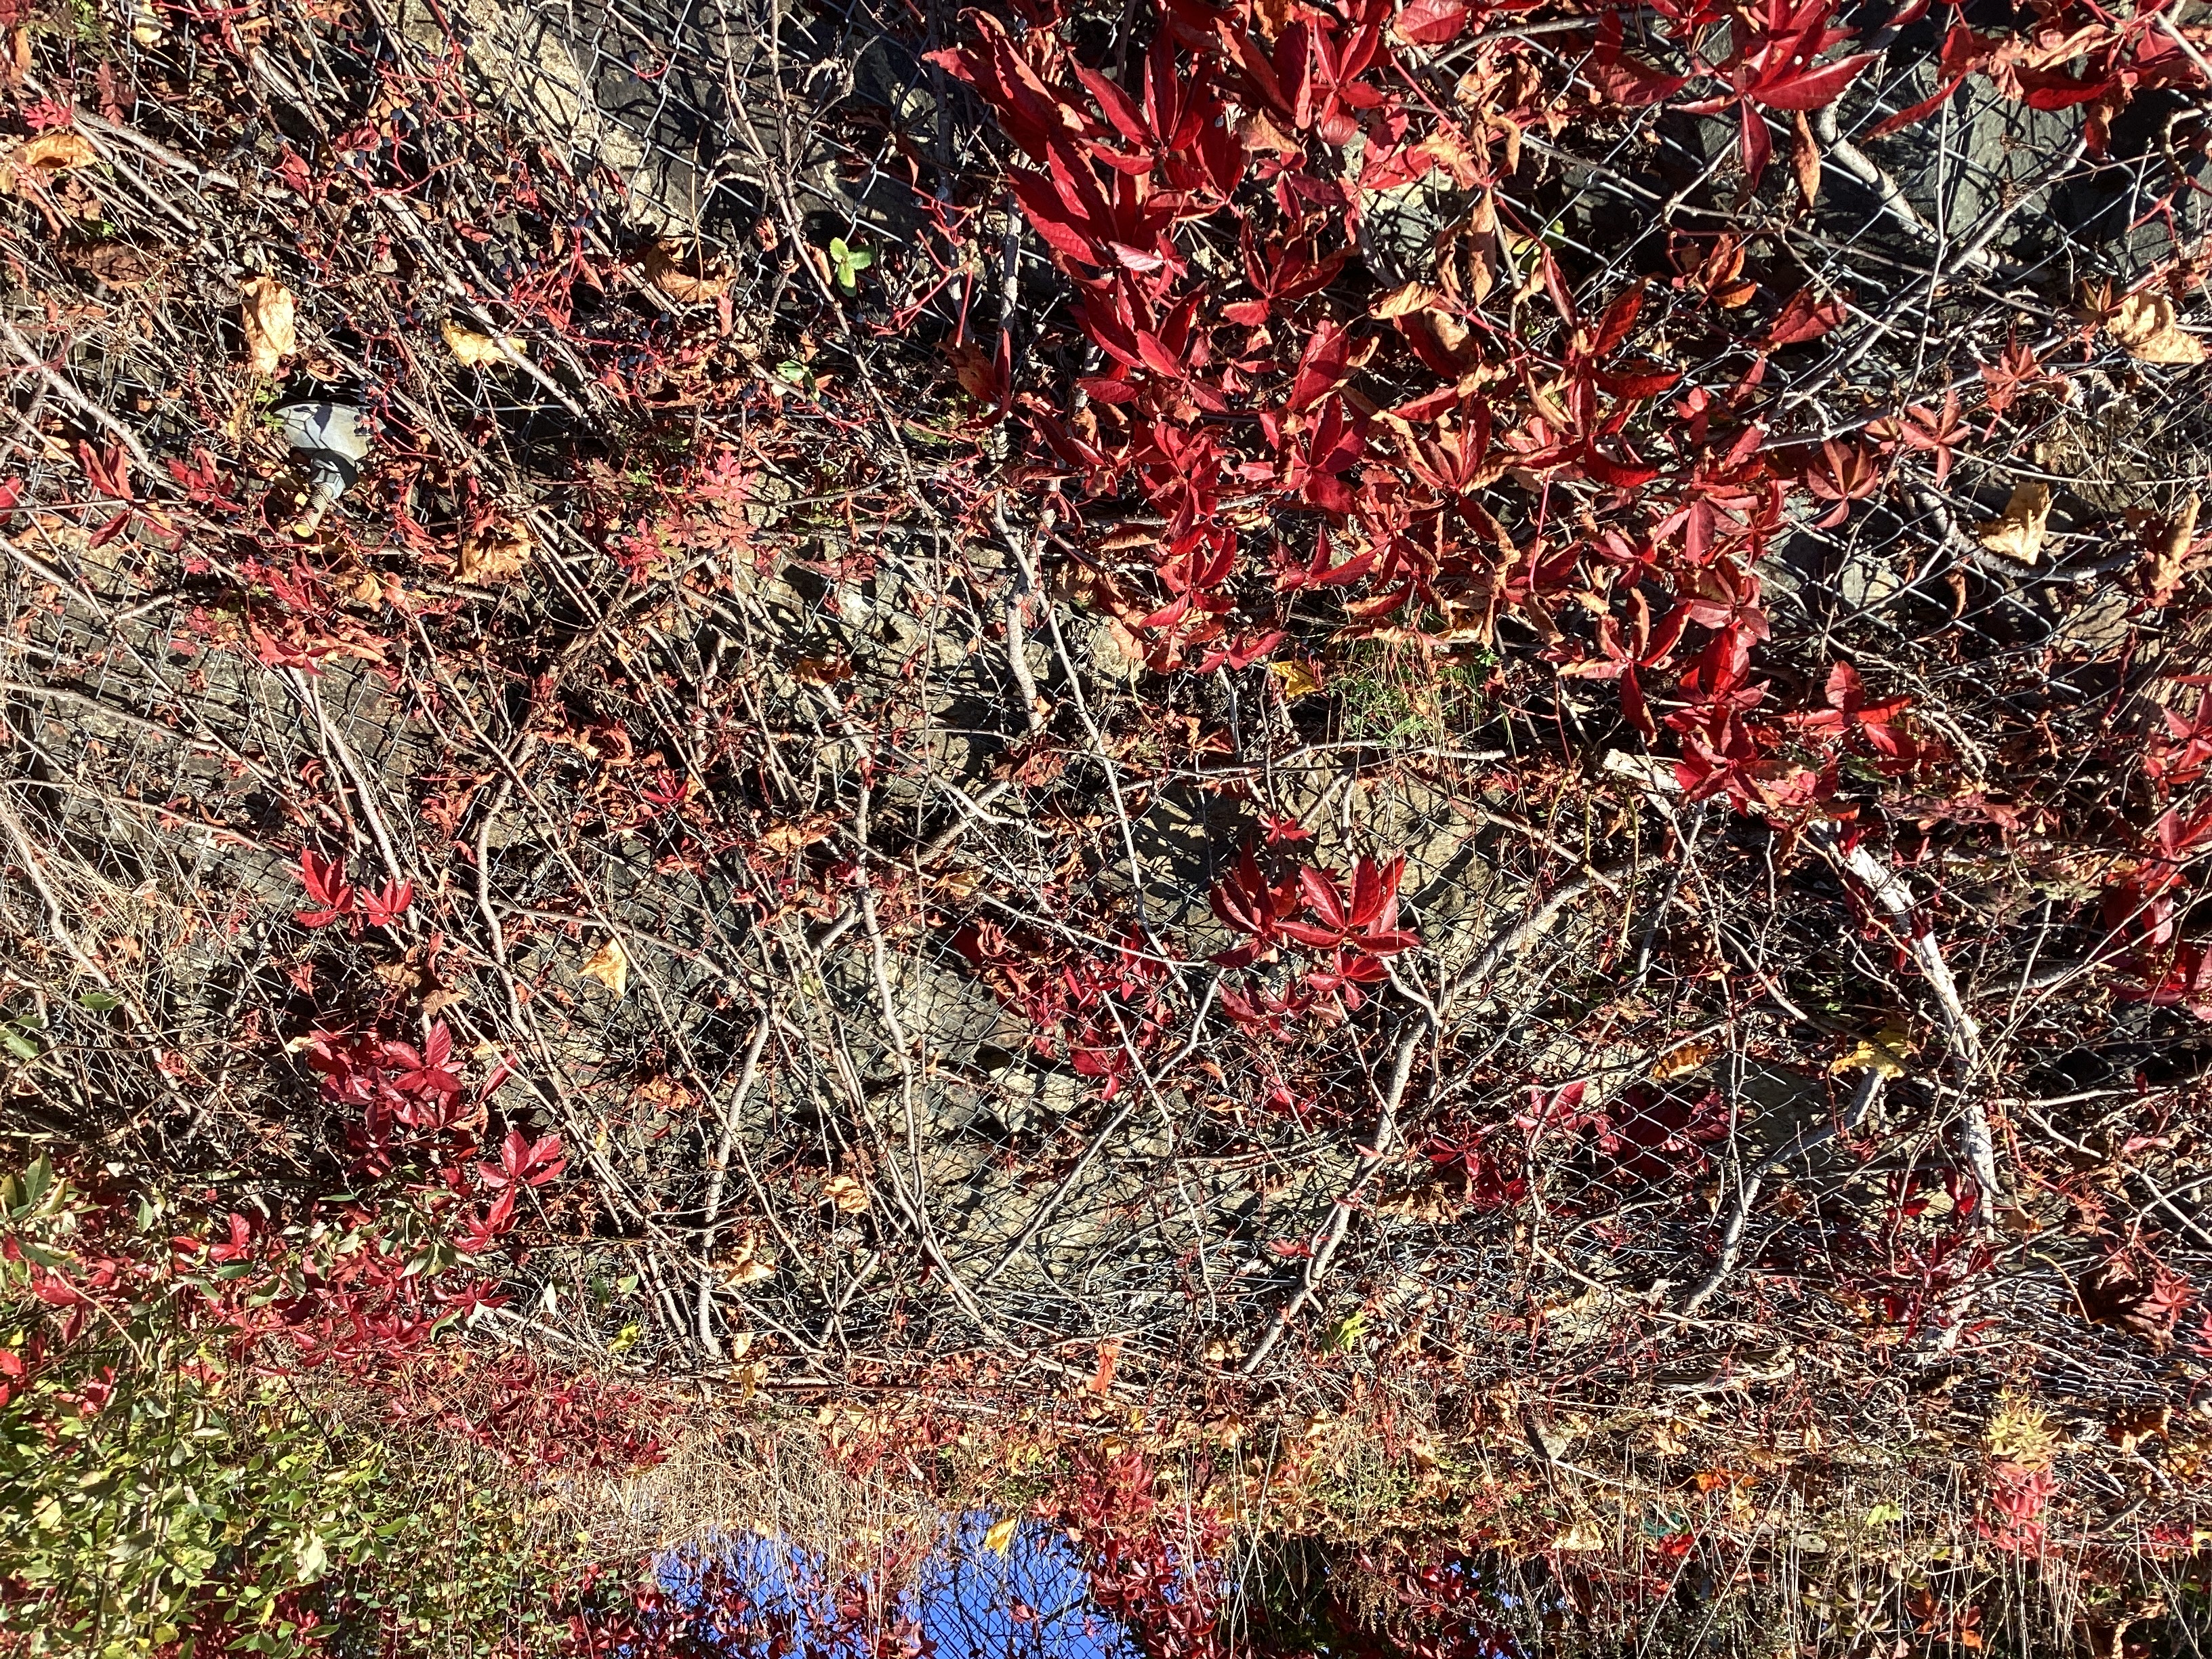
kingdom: Plantae
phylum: Tracheophyta
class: Magnoliopsida
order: Vitales
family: Vitaceae
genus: Parthenocissus
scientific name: Parthenocissus quinquefolia
